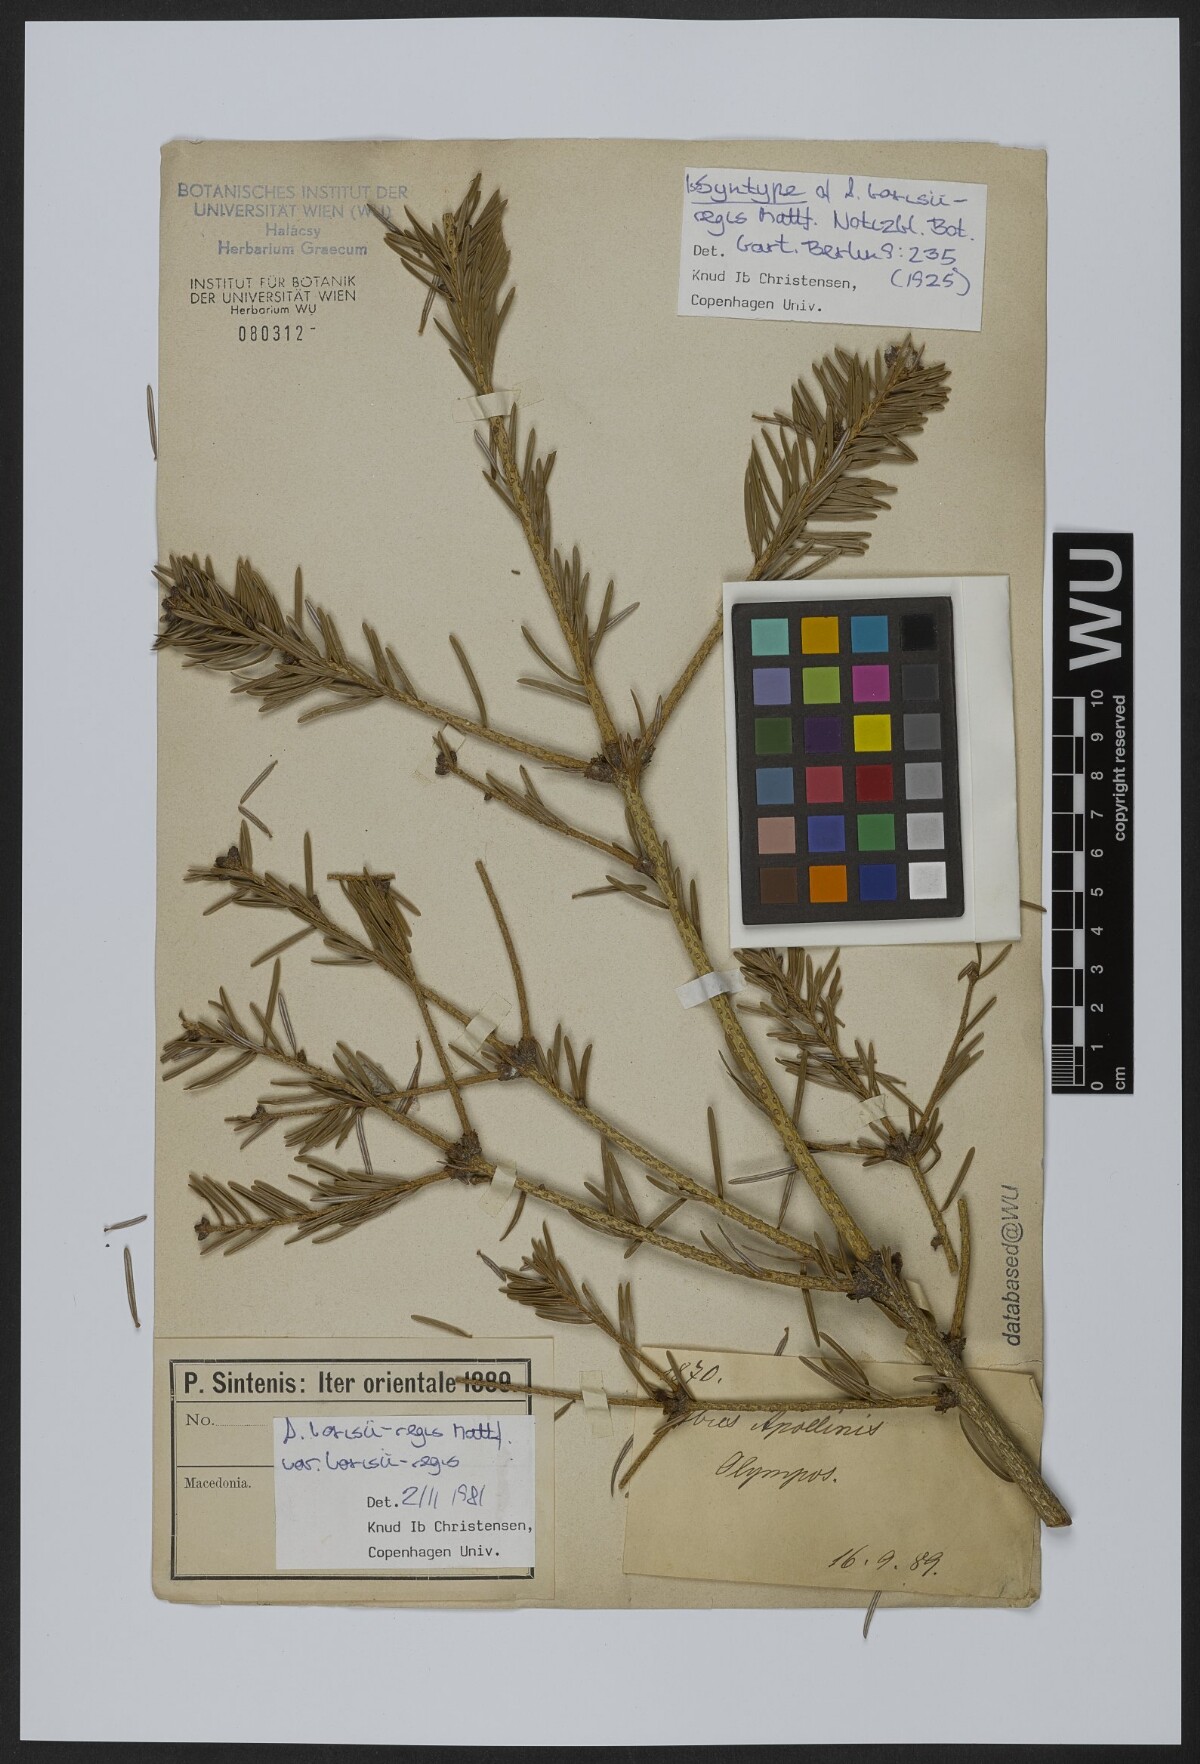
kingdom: Plantae
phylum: Tracheophyta
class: Pinopsida
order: Pinales
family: Pinaceae
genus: Abies
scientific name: Abies borisii-regis
